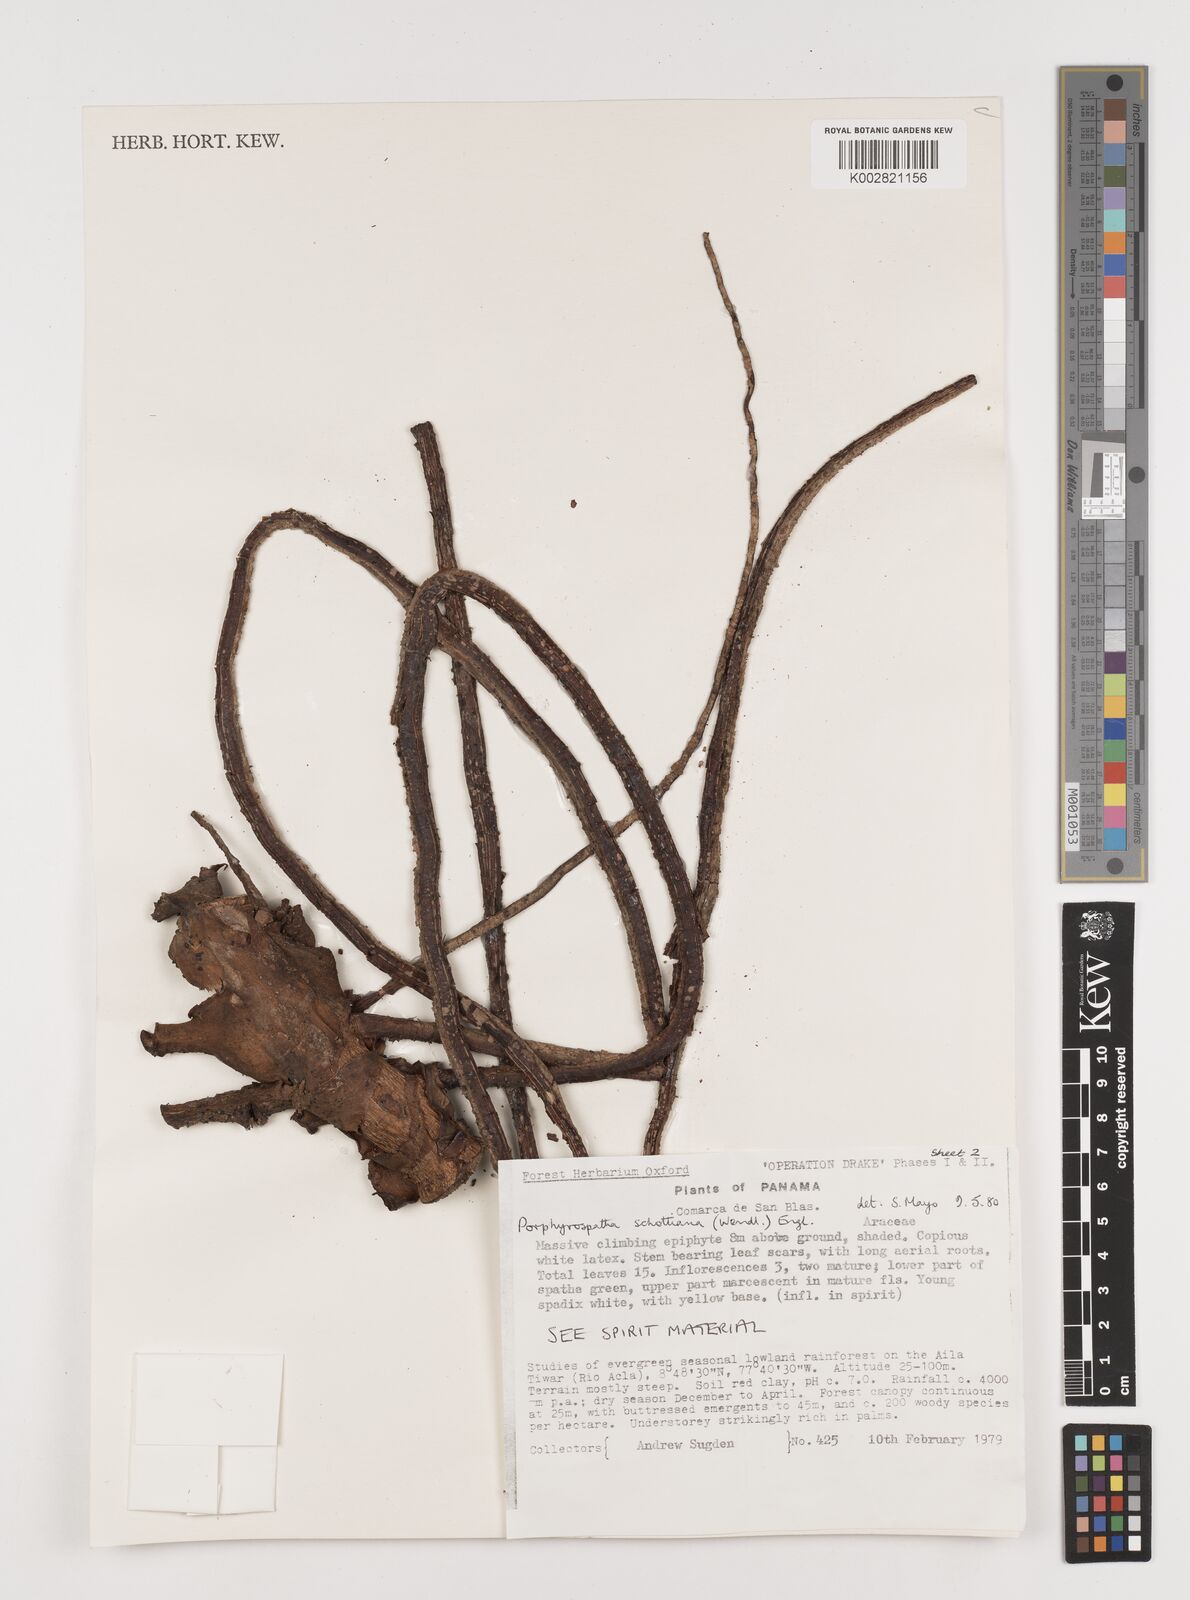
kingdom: Plantae
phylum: Tracheophyta
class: Liliopsida
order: Alismatales
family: Araceae
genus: Syngonium
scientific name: Syngonium schottianum
